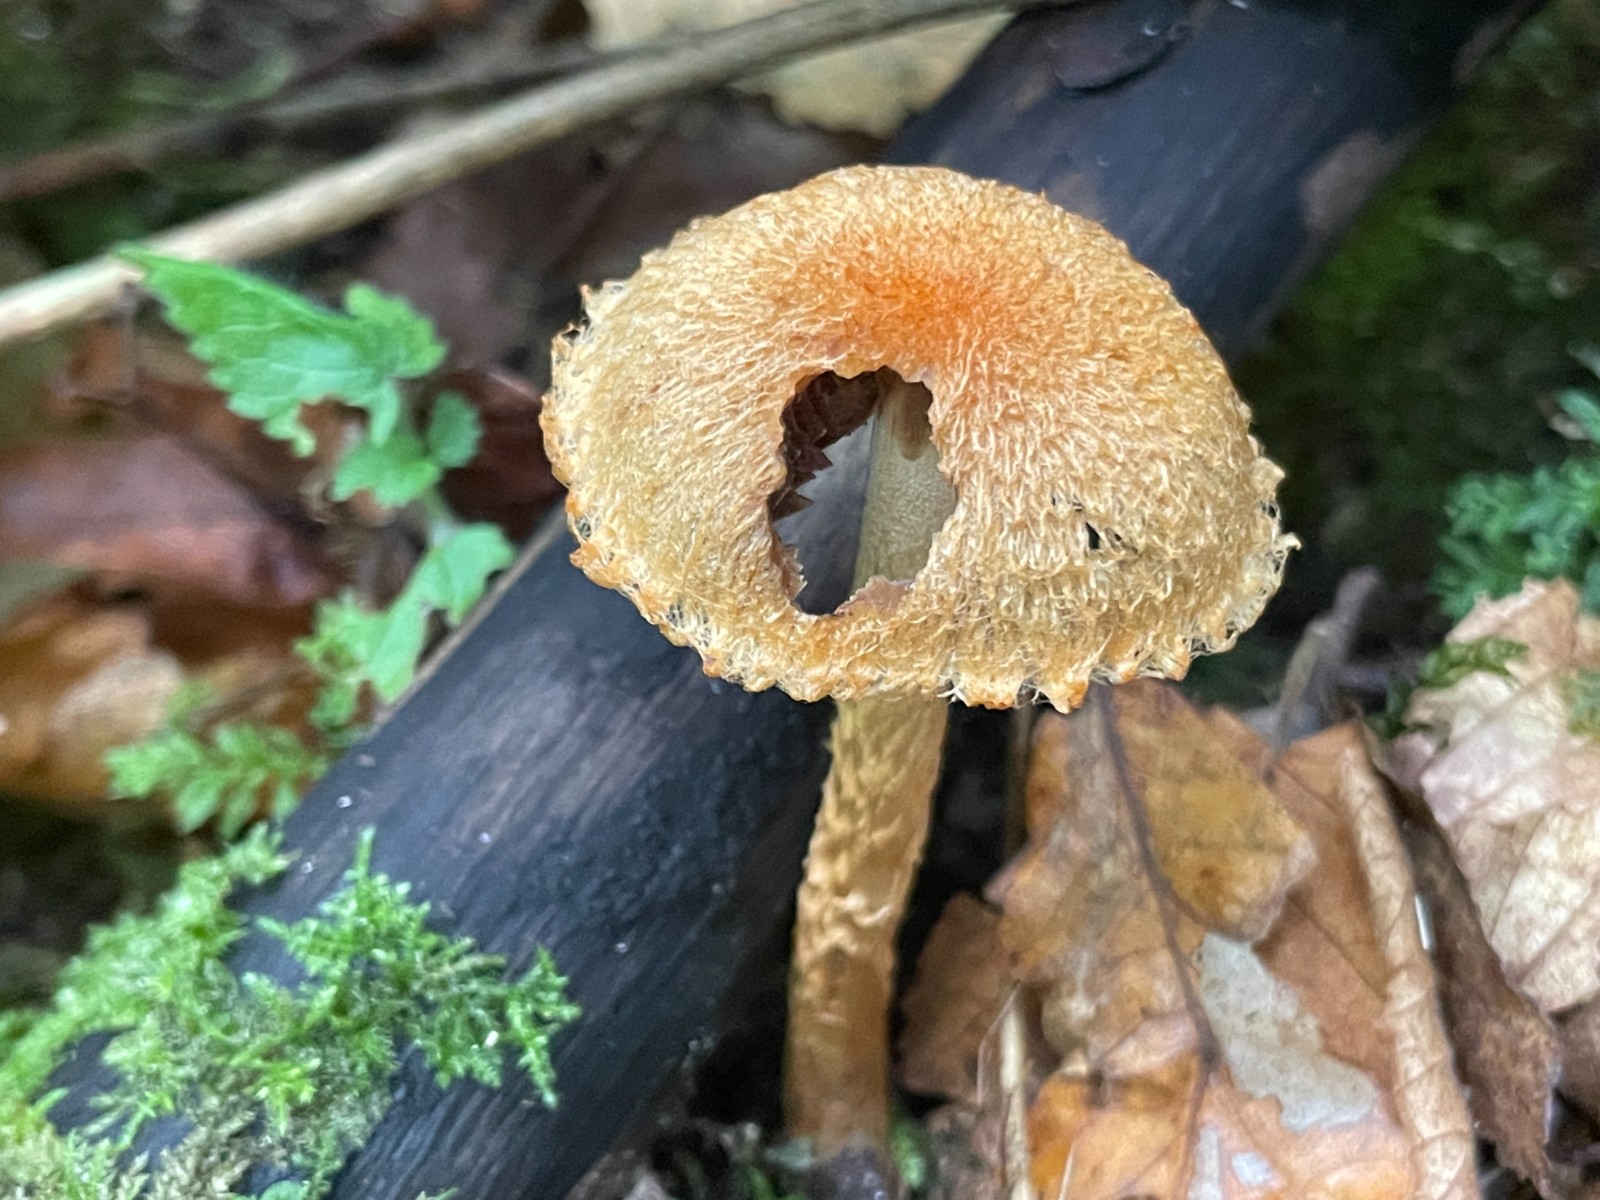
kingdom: Fungi
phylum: Basidiomycota
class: Agaricomycetes
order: Agaricales
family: Psathyrellaceae
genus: Lacrymaria
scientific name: Lacrymaria pyrotricha
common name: ildhåret mørkhat
